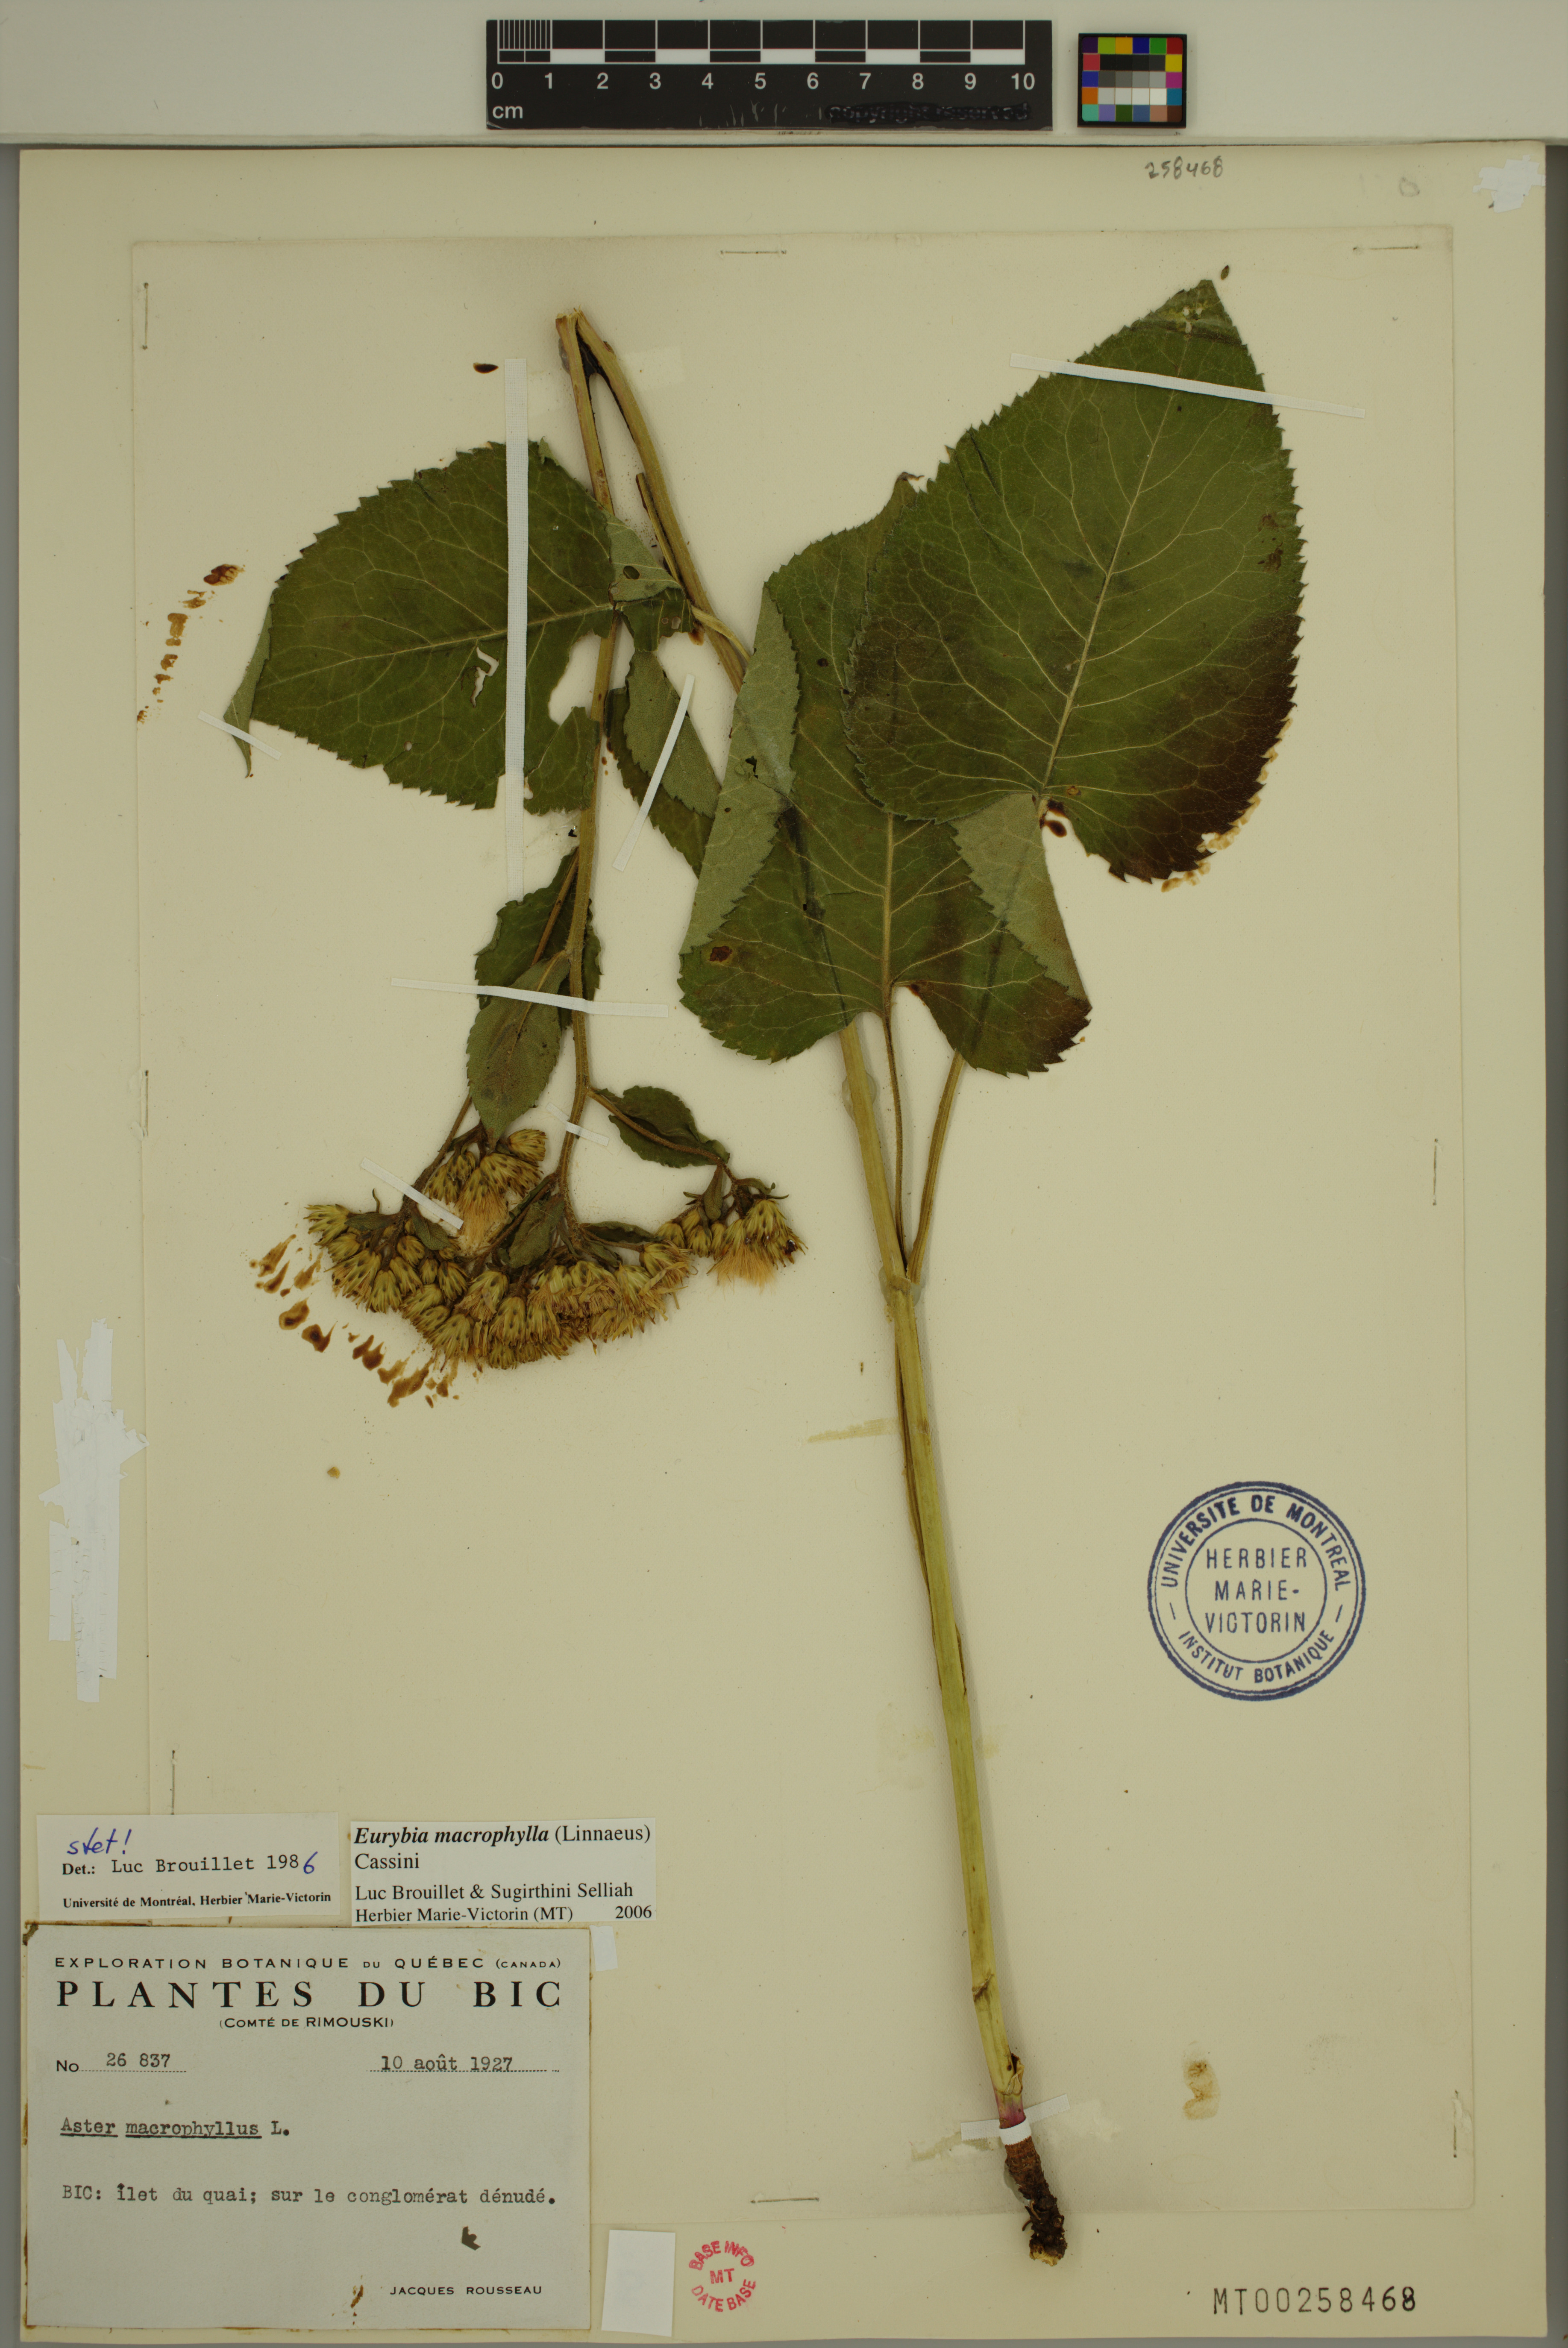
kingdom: Plantae
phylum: Tracheophyta
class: Magnoliopsida
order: Asterales
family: Asteraceae
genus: Eurybia
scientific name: Eurybia macrophylla
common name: Big-leaved aster
